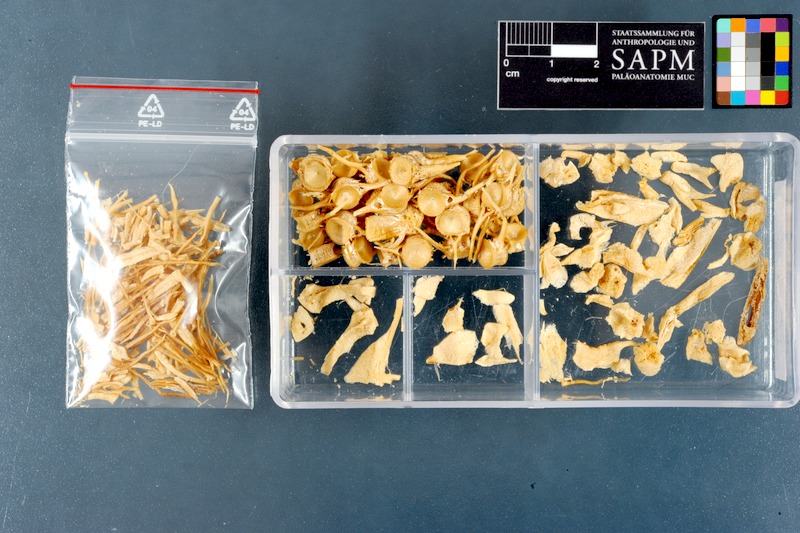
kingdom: Animalia
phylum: Chordata
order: Perciformes
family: Carangidae
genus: Parastromateus
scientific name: Parastromateus niger
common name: Black pomfret
